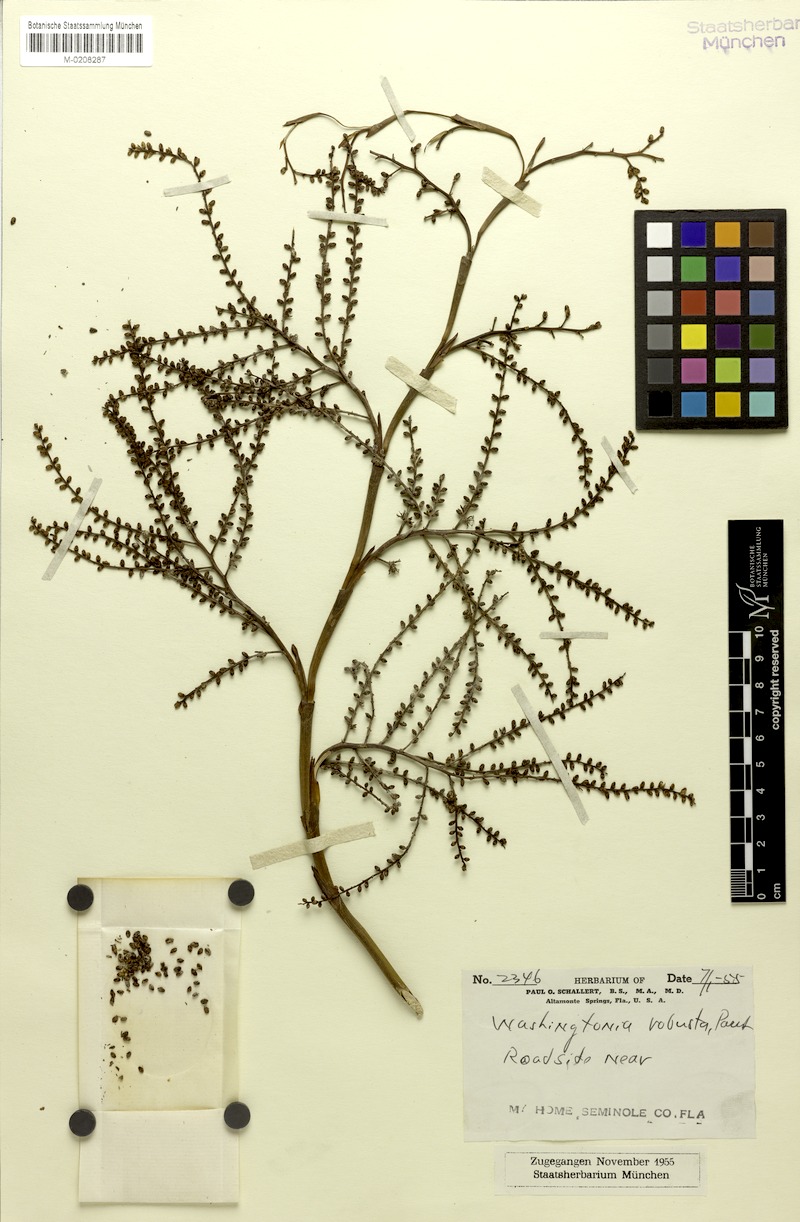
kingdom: Plantae
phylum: Tracheophyta
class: Liliopsida
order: Arecales
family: Arecaceae
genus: Washingtonia
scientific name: Washingtonia robusta
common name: Mexican fan palm
